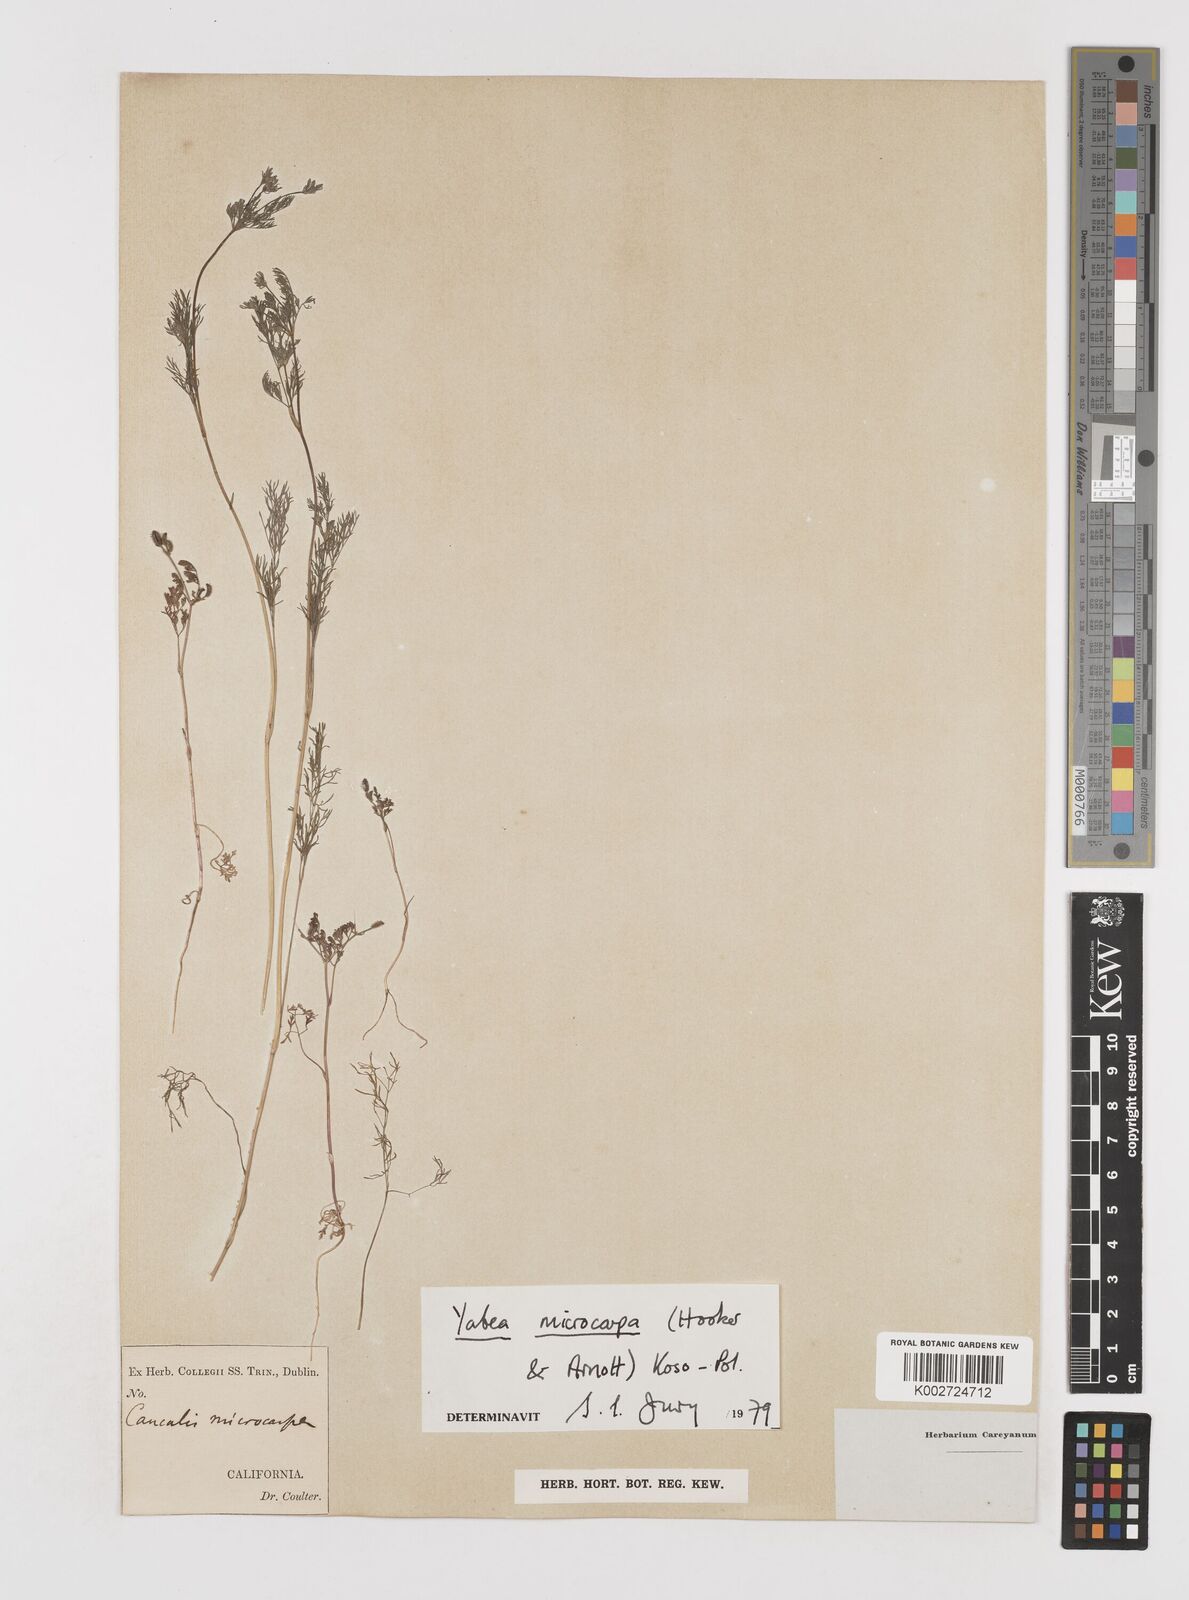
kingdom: Plantae
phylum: Tracheophyta
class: Magnoliopsida
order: Apiales
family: Apiaceae
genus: Yabea
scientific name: Yabea microcarpa
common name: False carrot
